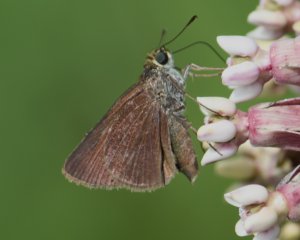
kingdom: Animalia
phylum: Arthropoda
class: Insecta
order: Lepidoptera
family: Hesperiidae
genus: Euphyes
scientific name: Euphyes vestris
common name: Dun Skipper
